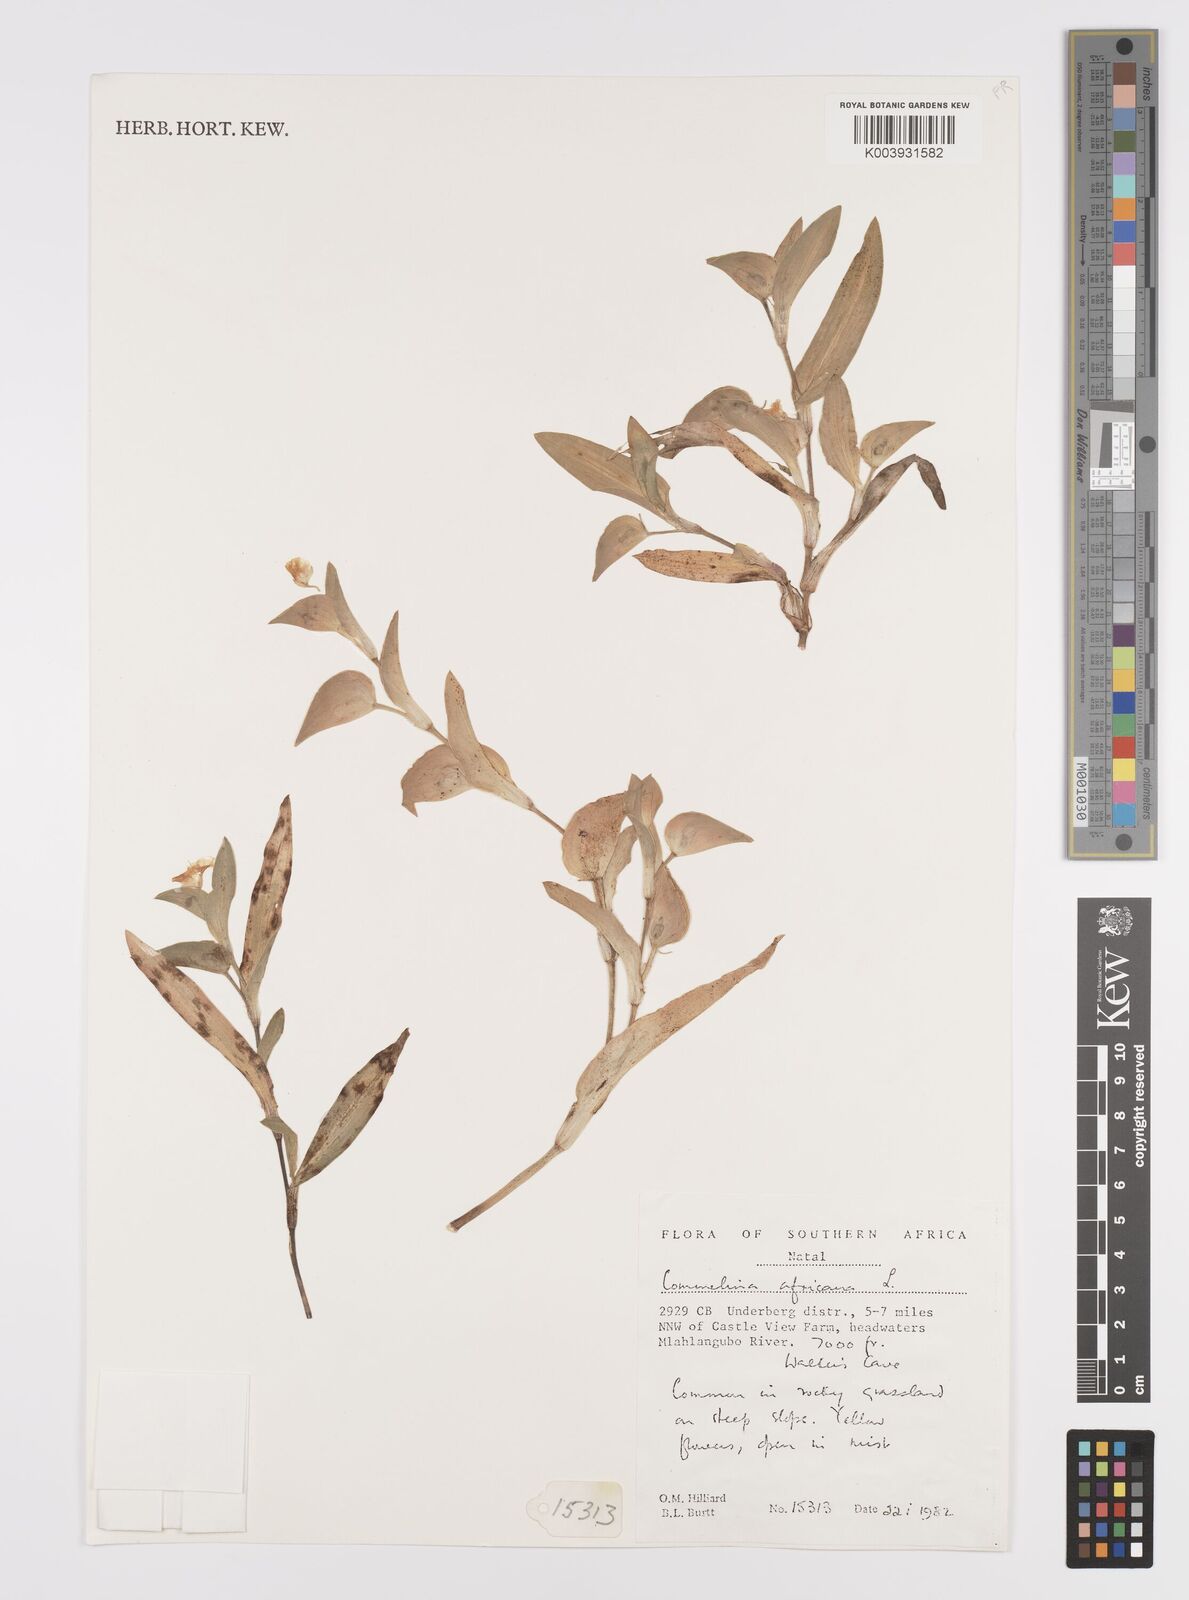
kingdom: Plantae
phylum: Tracheophyta
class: Liliopsida
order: Commelinales
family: Commelinaceae
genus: Commelina
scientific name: Commelina africana
